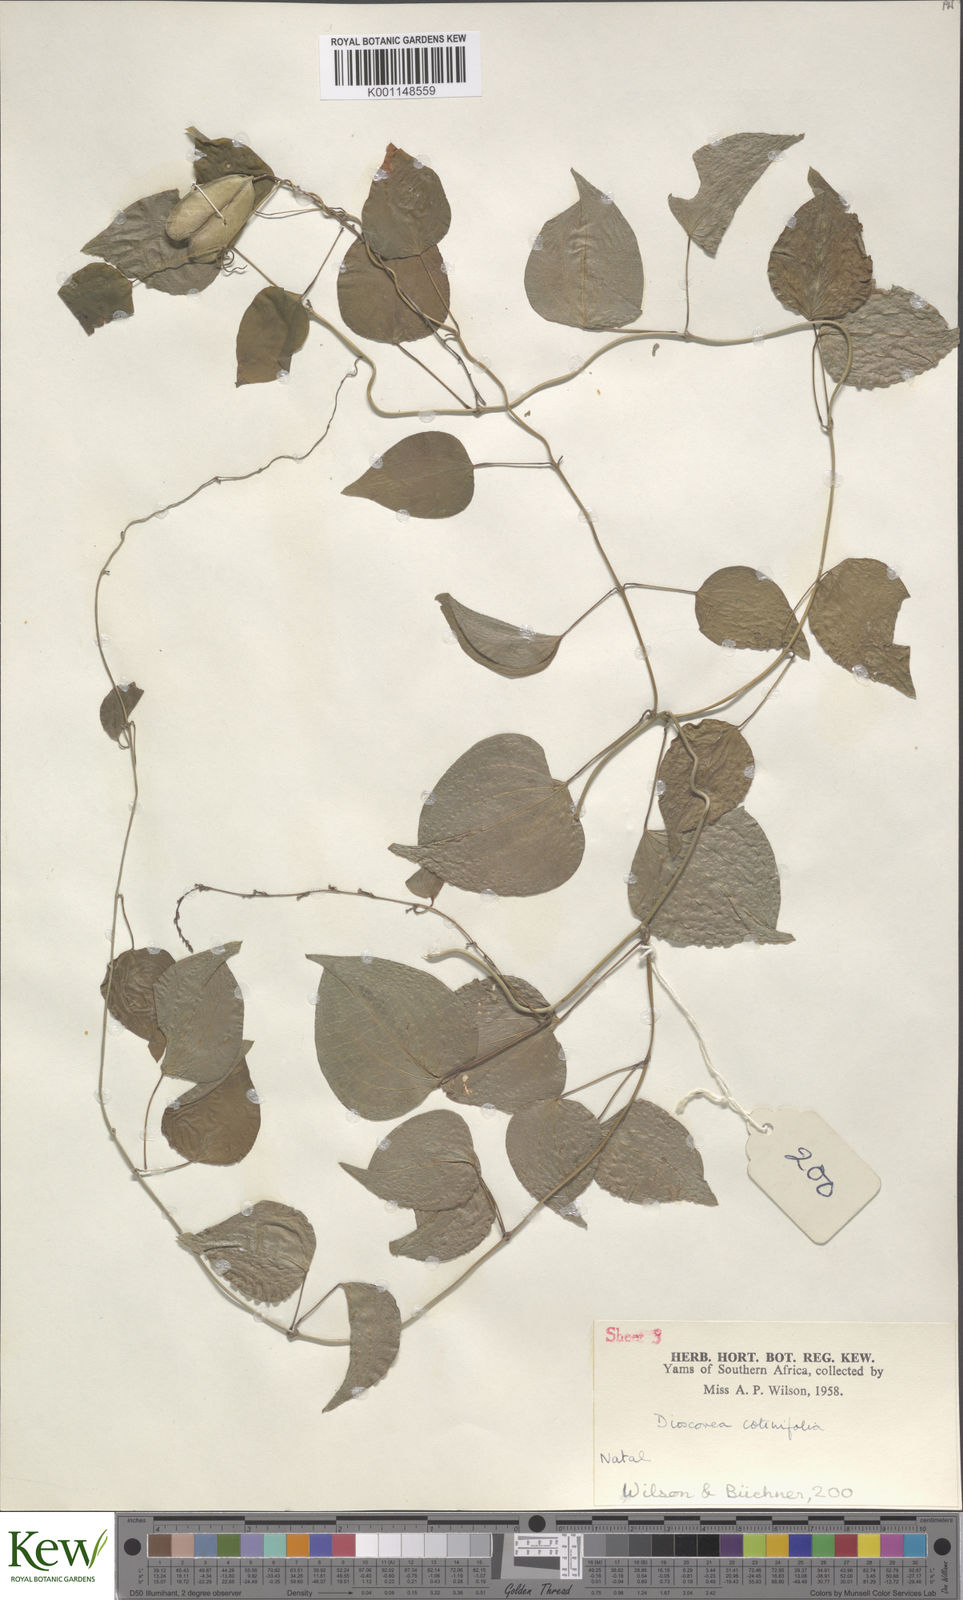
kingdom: Plantae
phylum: Tracheophyta
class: Liliopsida
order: Dioscoreales
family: Dioscoreaceae
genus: Dioscorea
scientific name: Dioscorea cotinifolia
